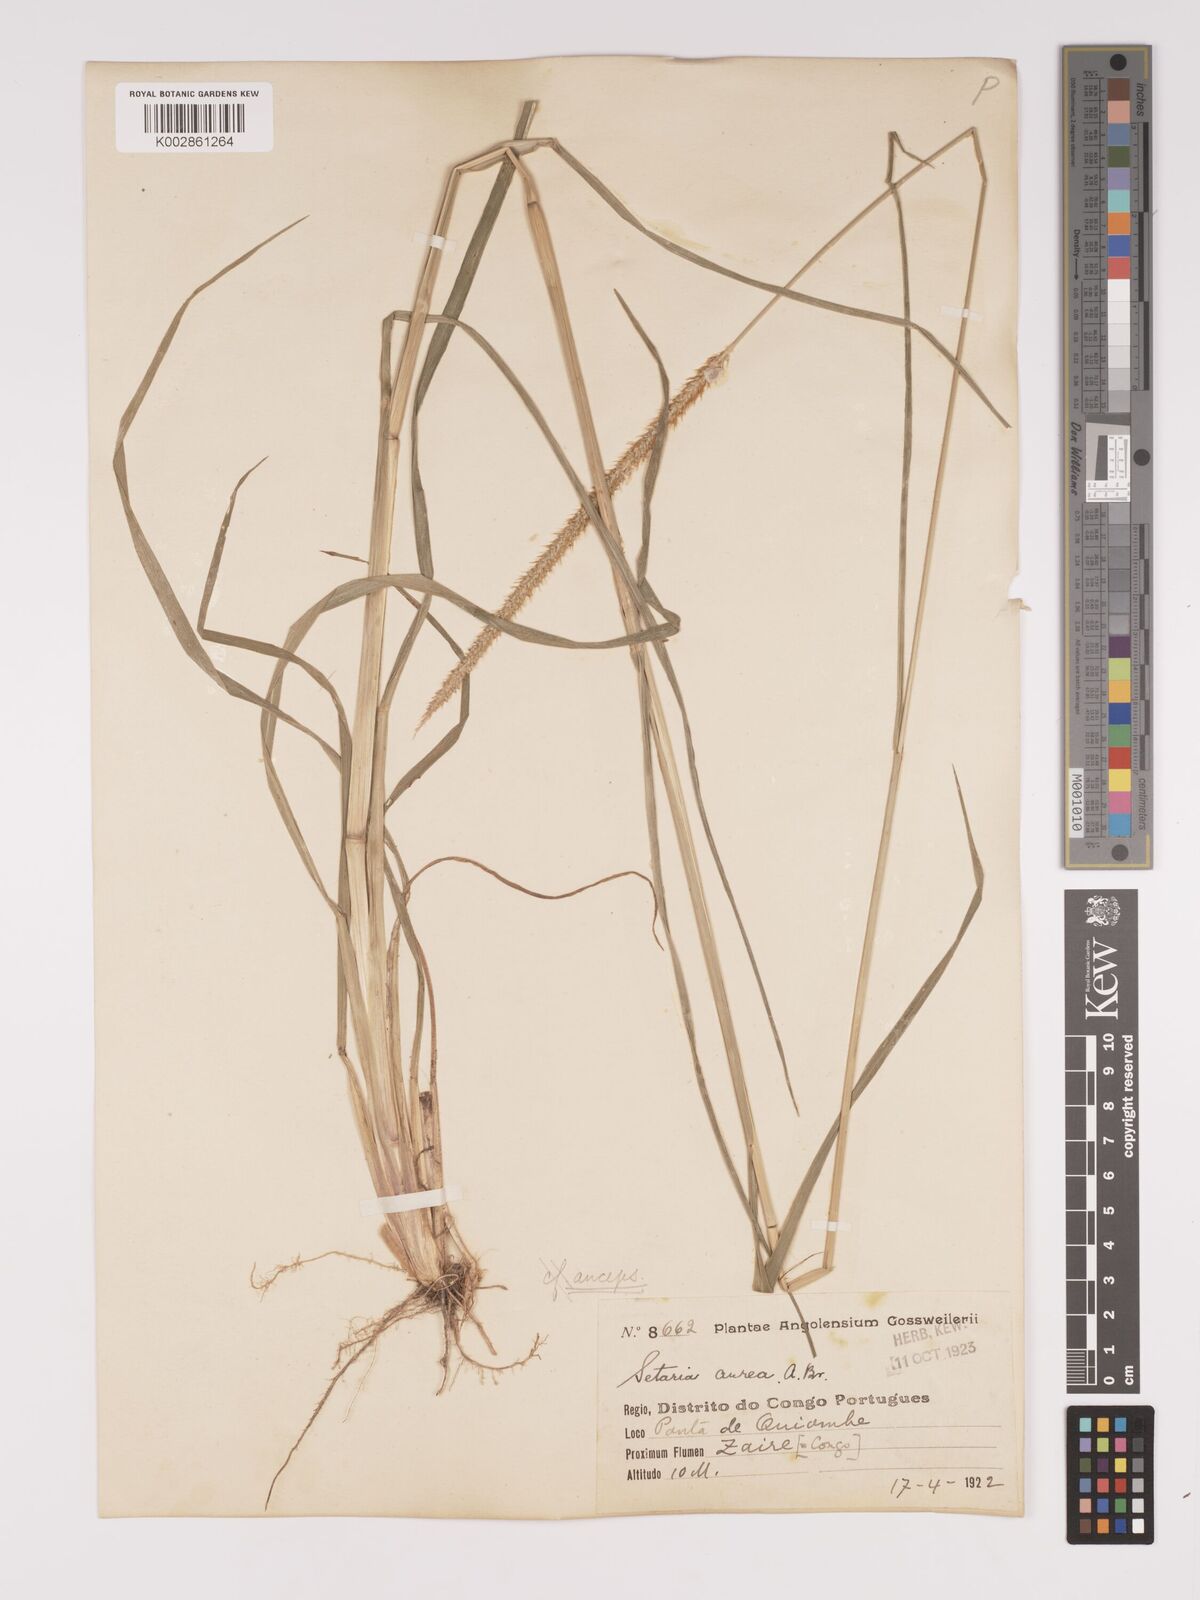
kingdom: Plantae
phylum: Tracheophyta
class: Liliopsida
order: Poales
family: Poaceae
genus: Setaria
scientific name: Setaria sphacelata
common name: African bristlegrass
